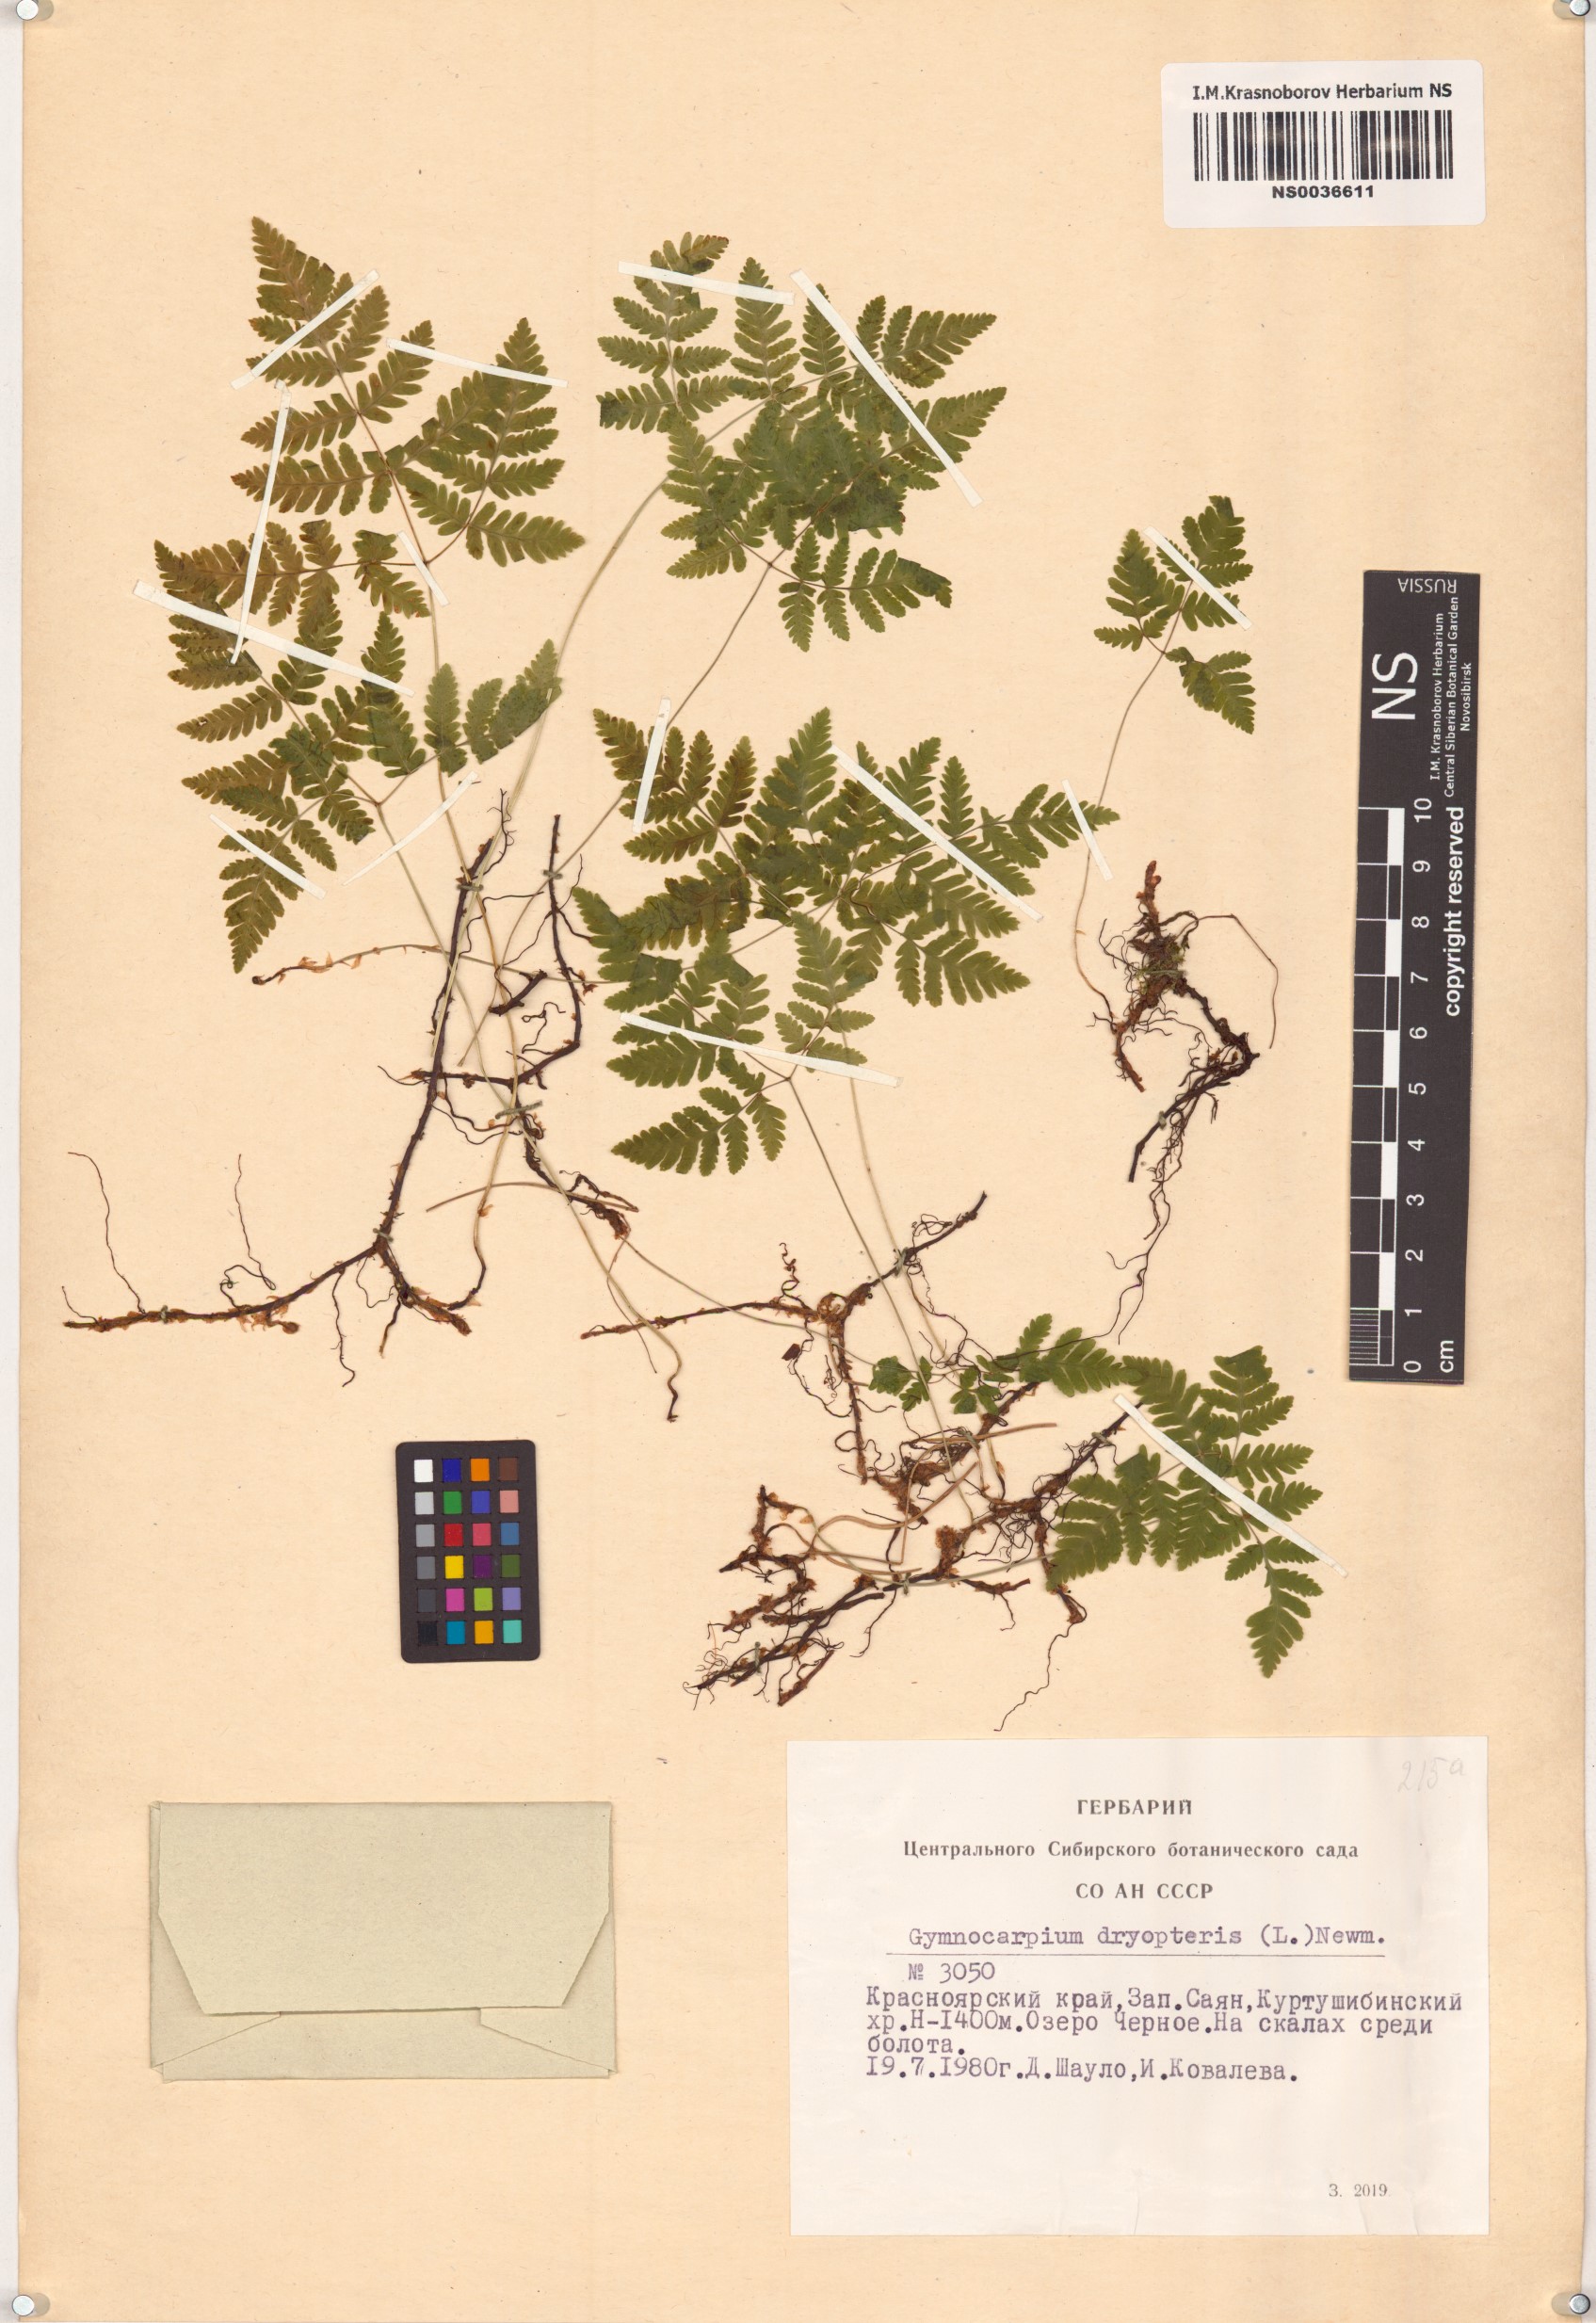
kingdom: Plantae
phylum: Tracheophyta
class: Polypodiopsida
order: Polypodiales
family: Cystopteridaceae
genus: Gymnocarpium
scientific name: Gymnocarpium dryopteris
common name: Oak fern
